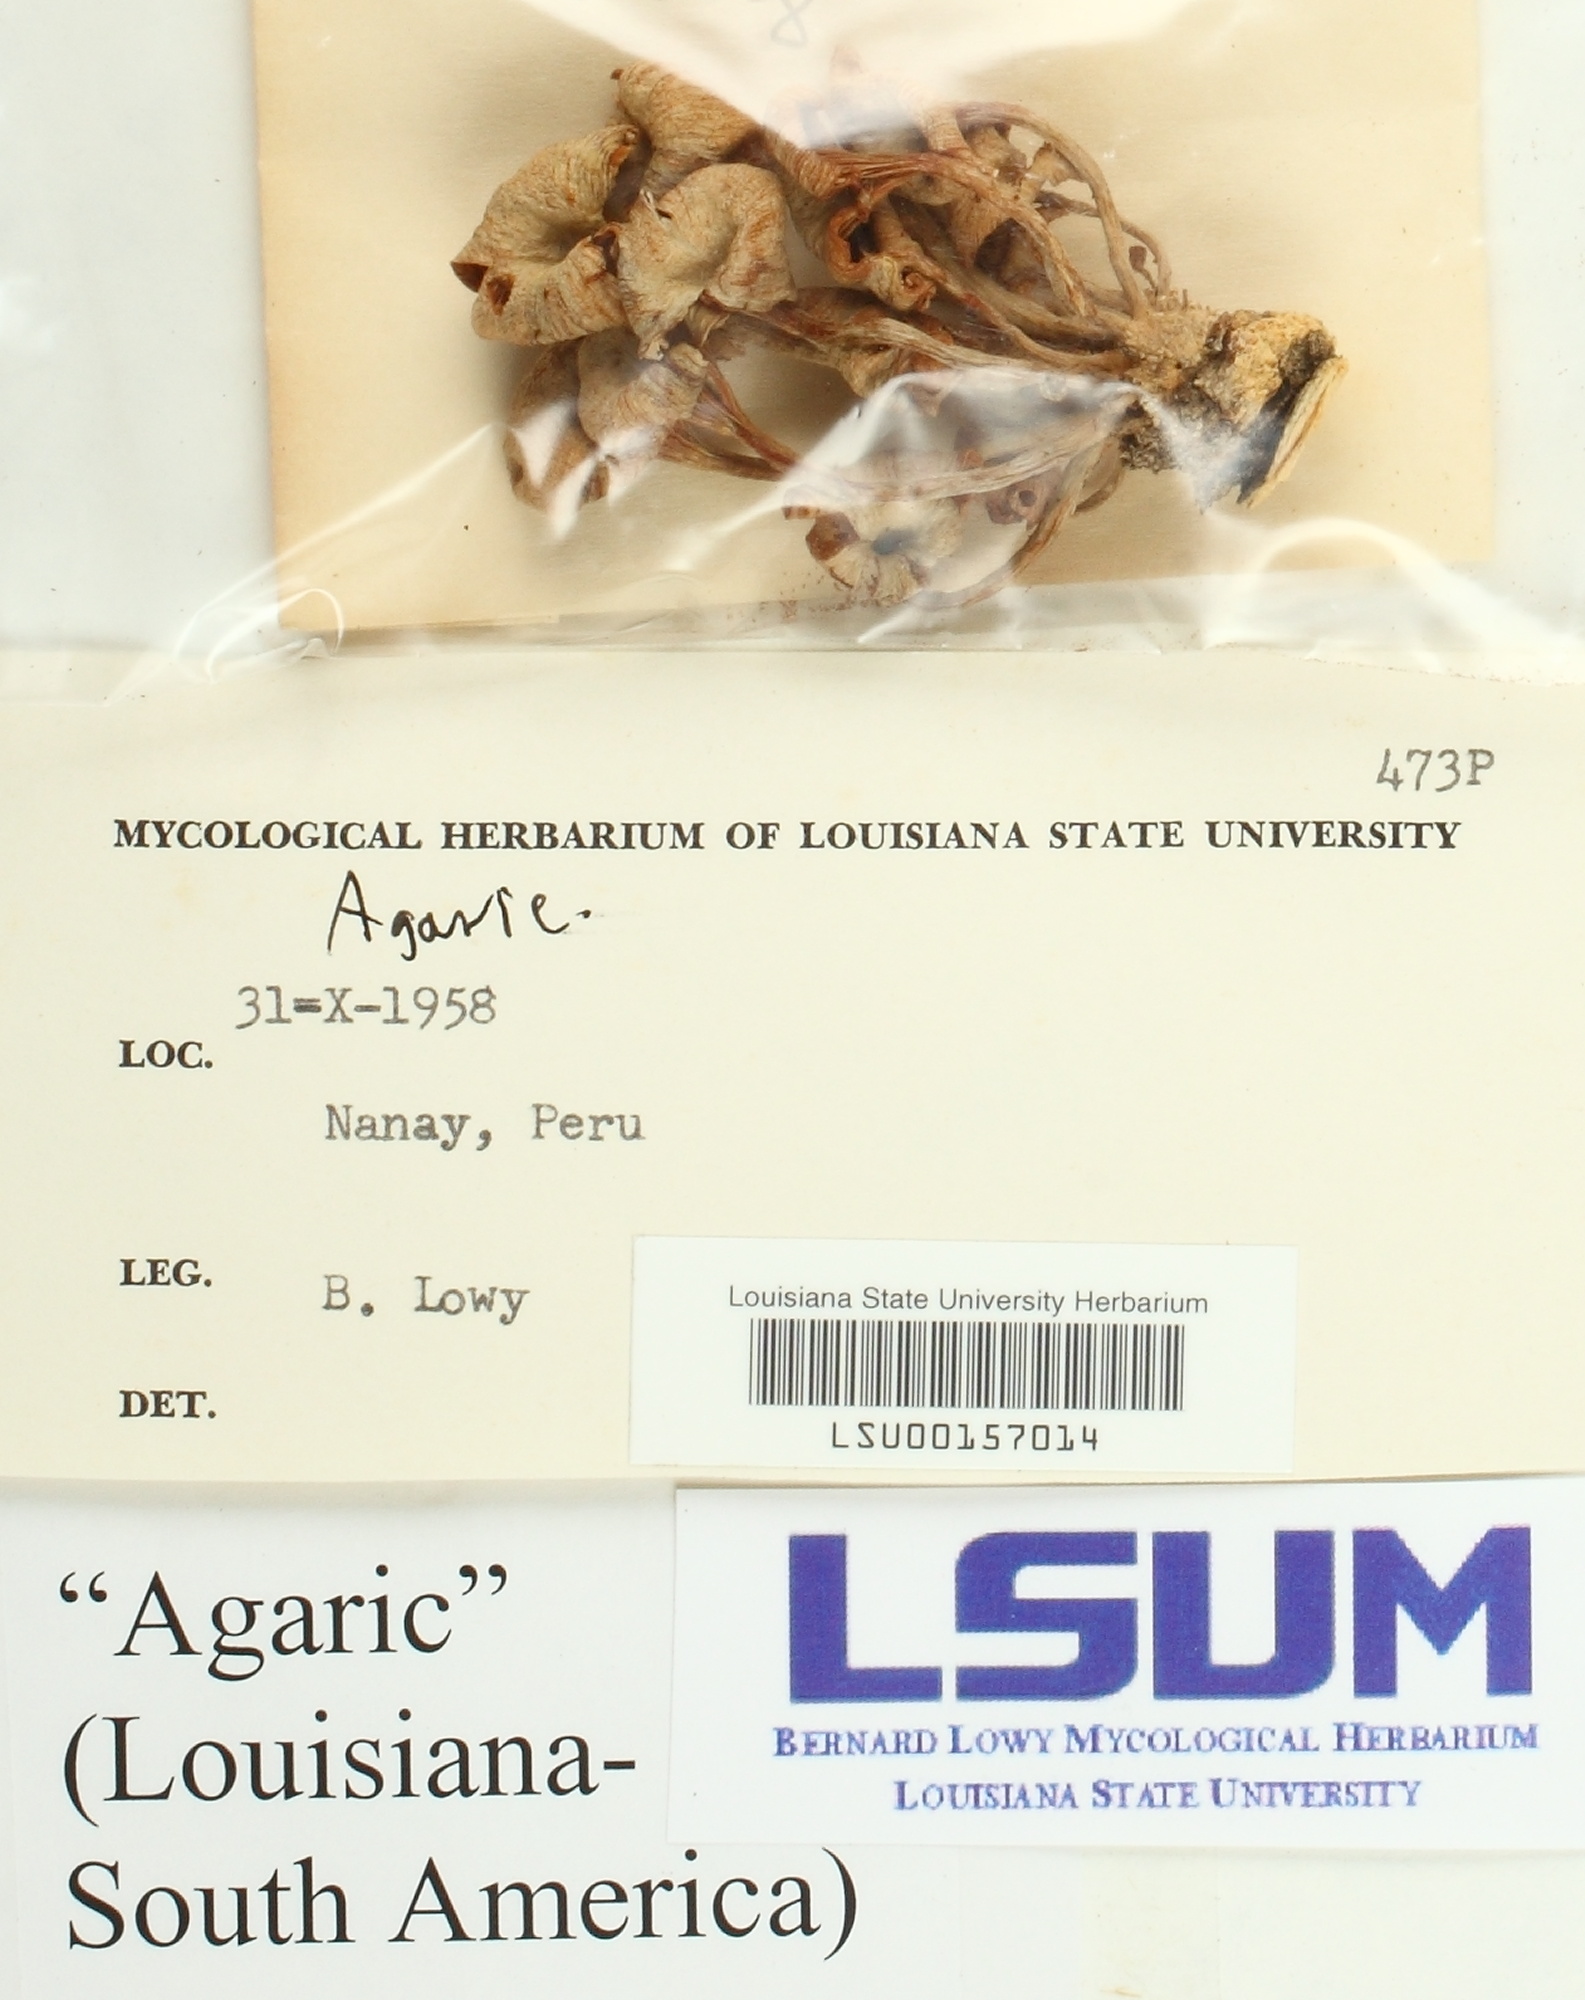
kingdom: Fungi
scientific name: Fungi
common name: Fungi
